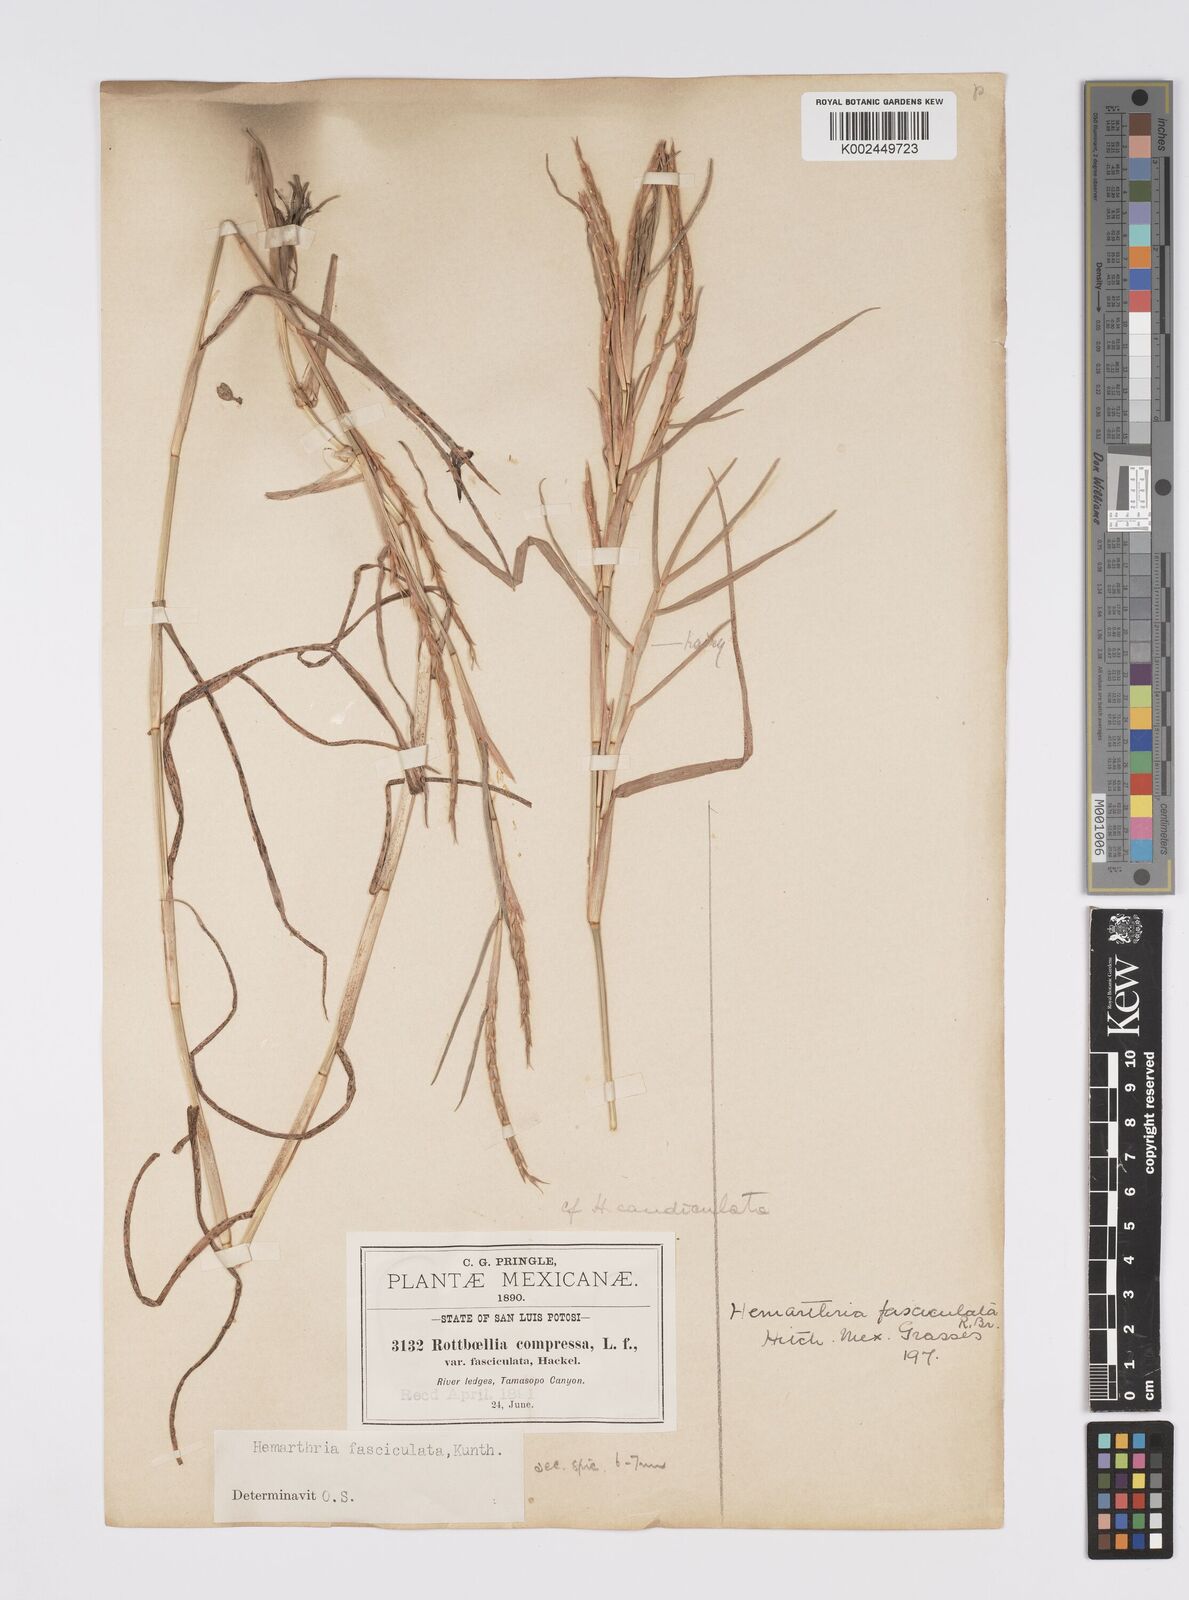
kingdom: Plantae
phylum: Tracheophyta
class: Liliopsida
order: Poales
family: Poaceae
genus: Hemarthria
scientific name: Hemarthria altissima
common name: African jointgrass
